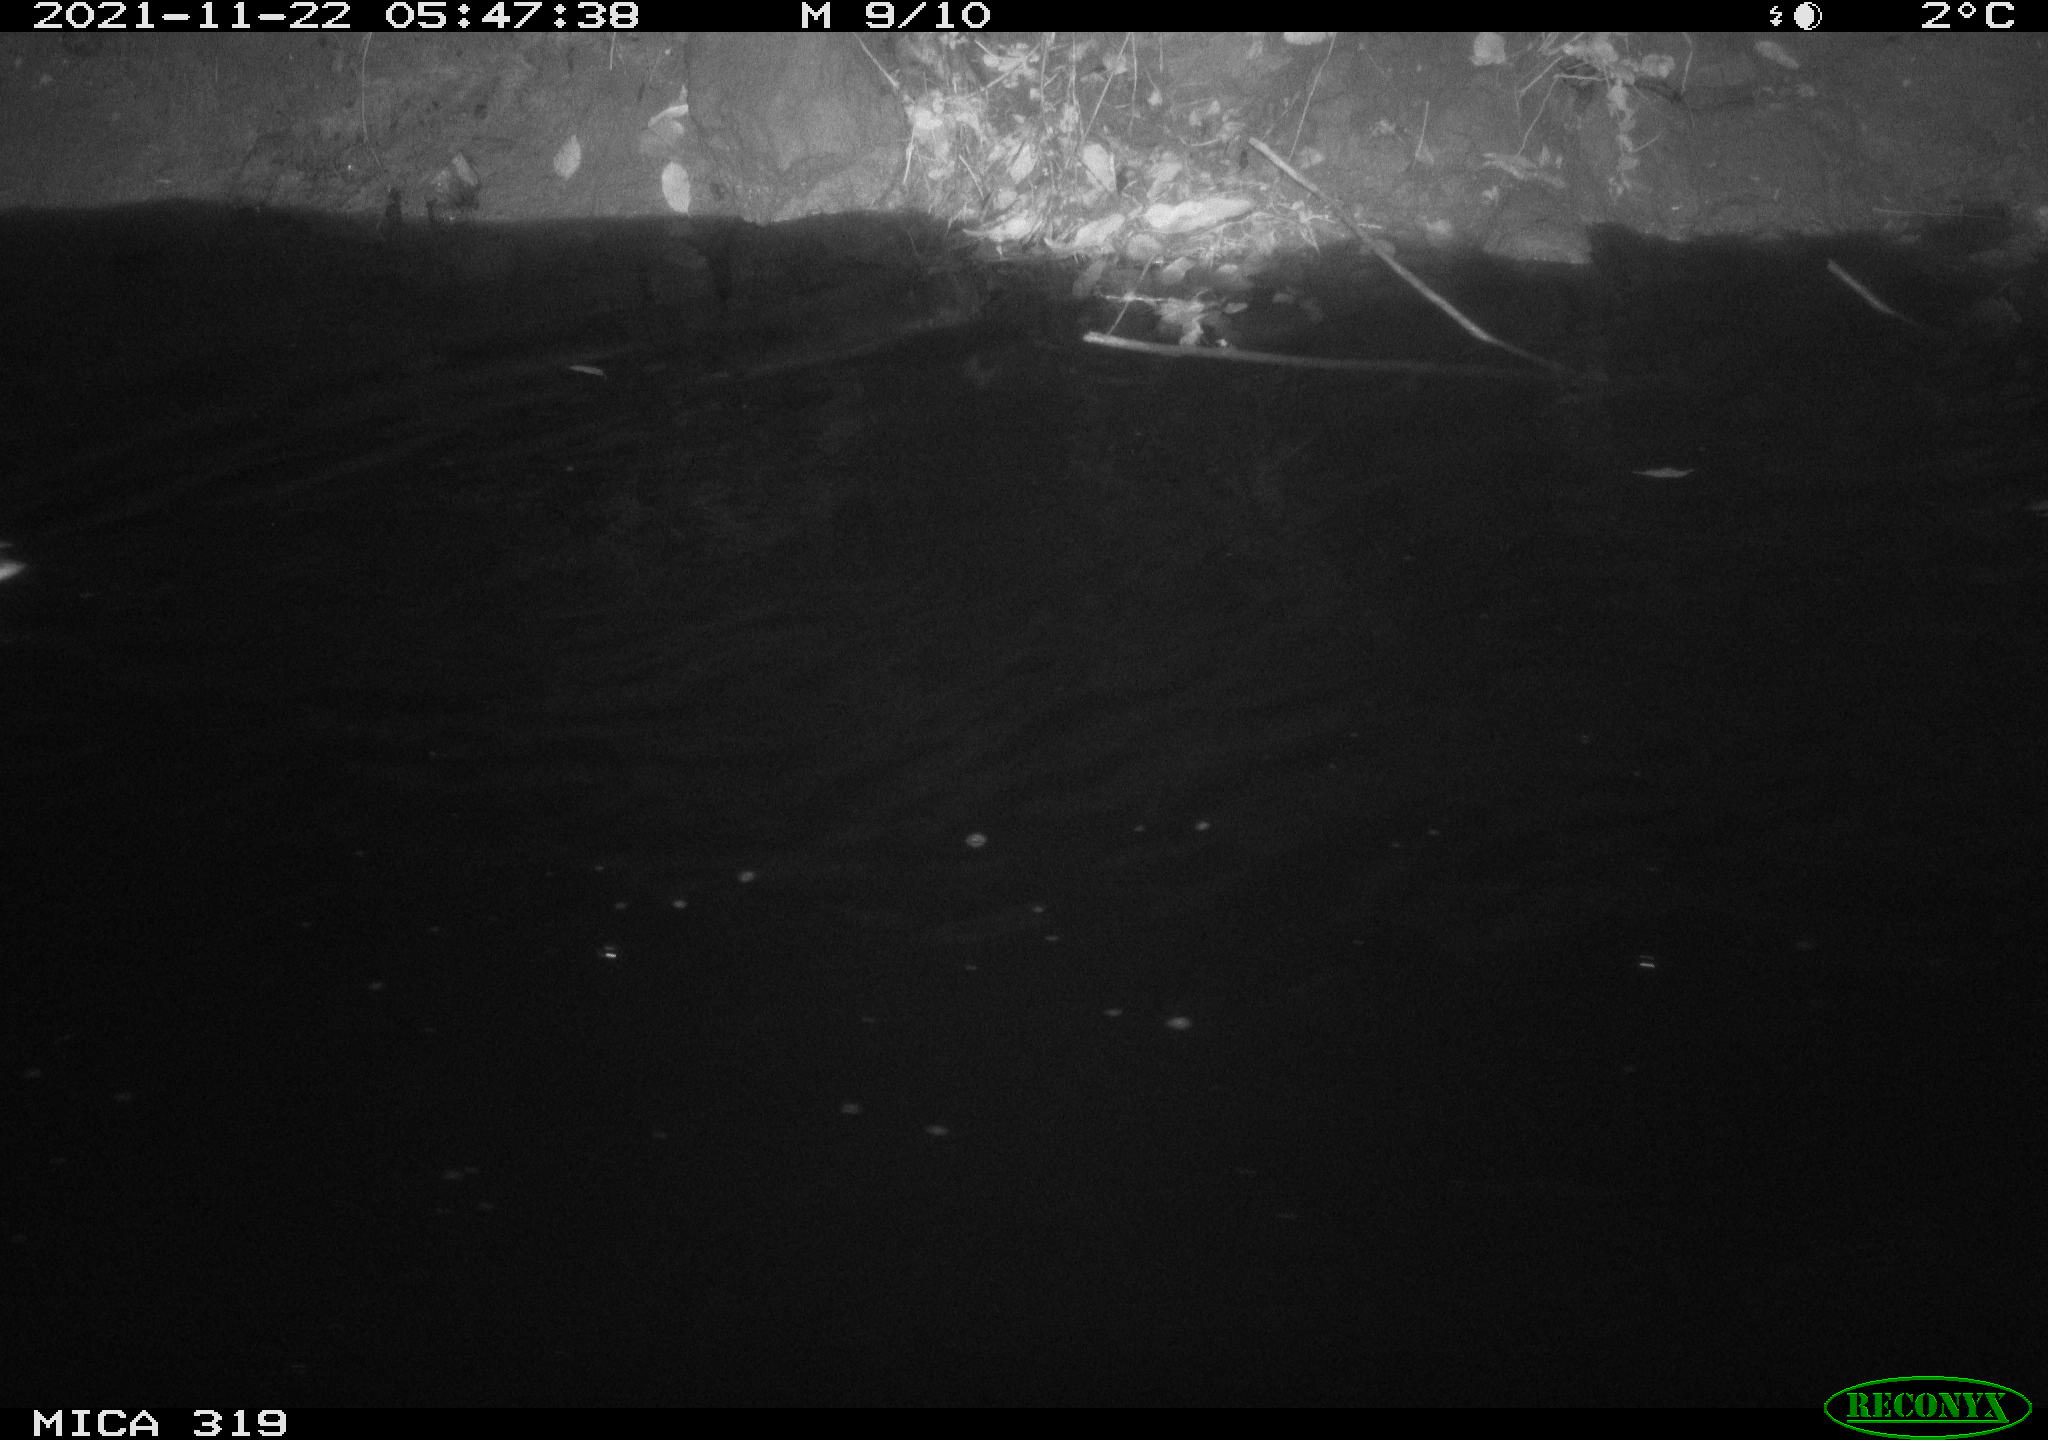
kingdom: Animalia
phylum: Chordata
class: Aves
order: Anseriformes
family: Anatidae
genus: Anas
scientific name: Anas platyrhynchos
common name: Mallard
